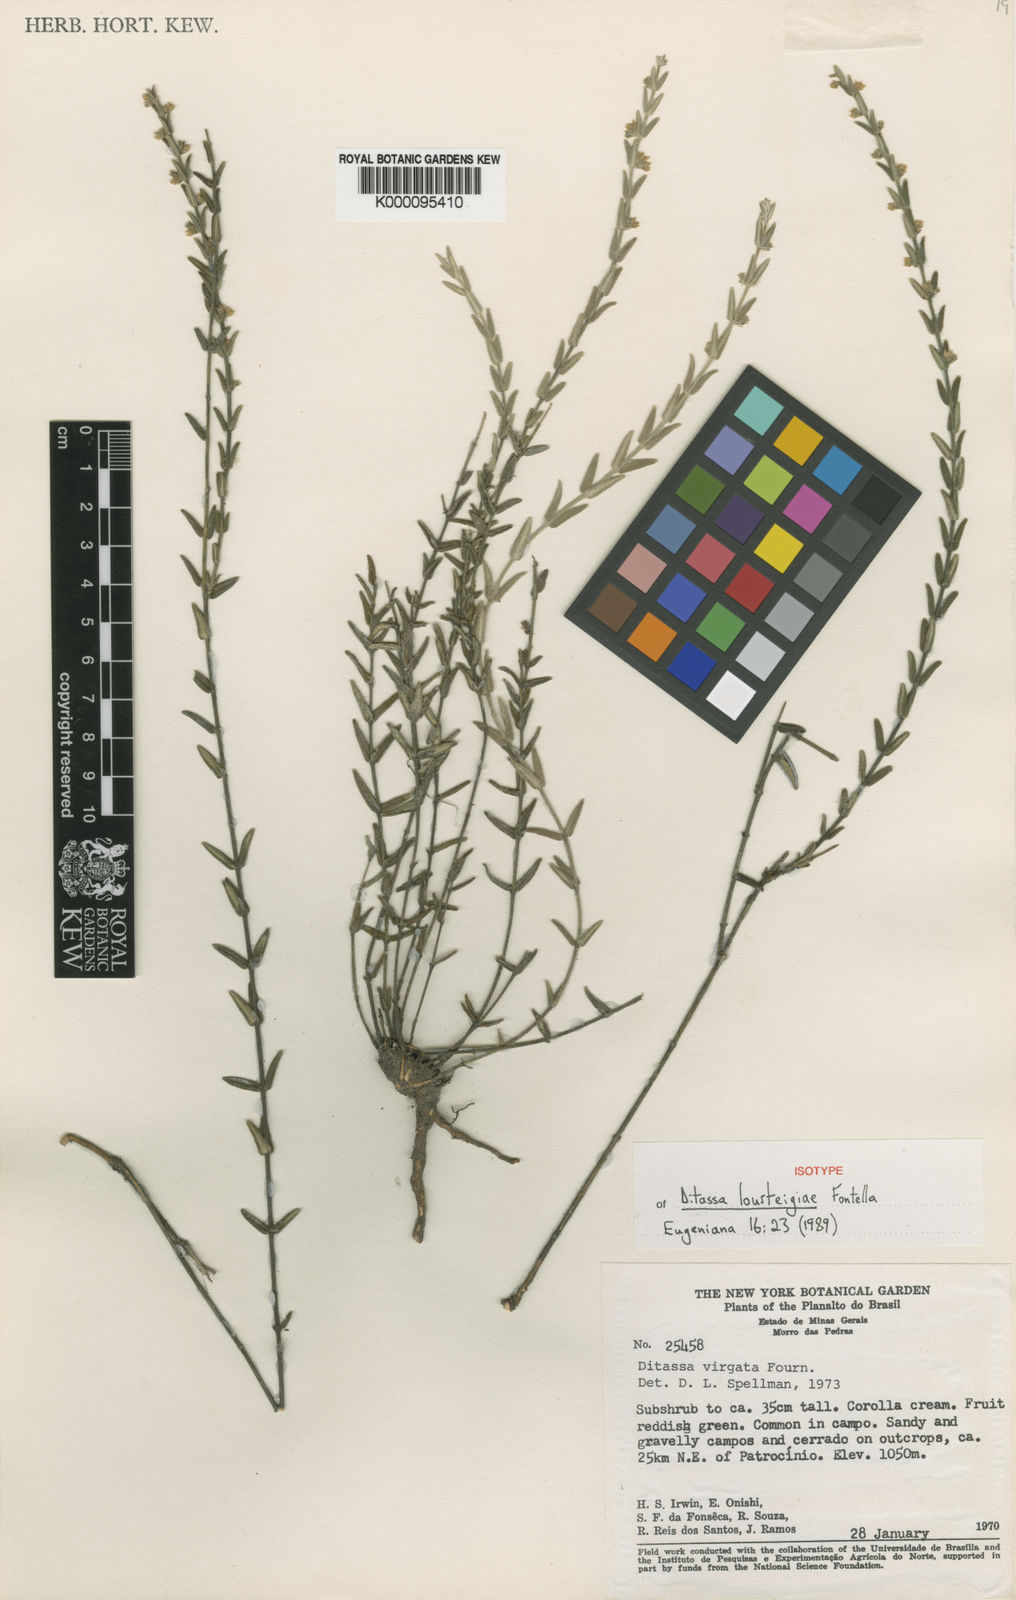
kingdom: Plantae
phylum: Tracheophyta
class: Magnoliopsida
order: Gentianales
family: Apocynaceae
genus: Minaria
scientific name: Minaria lourteigiae
